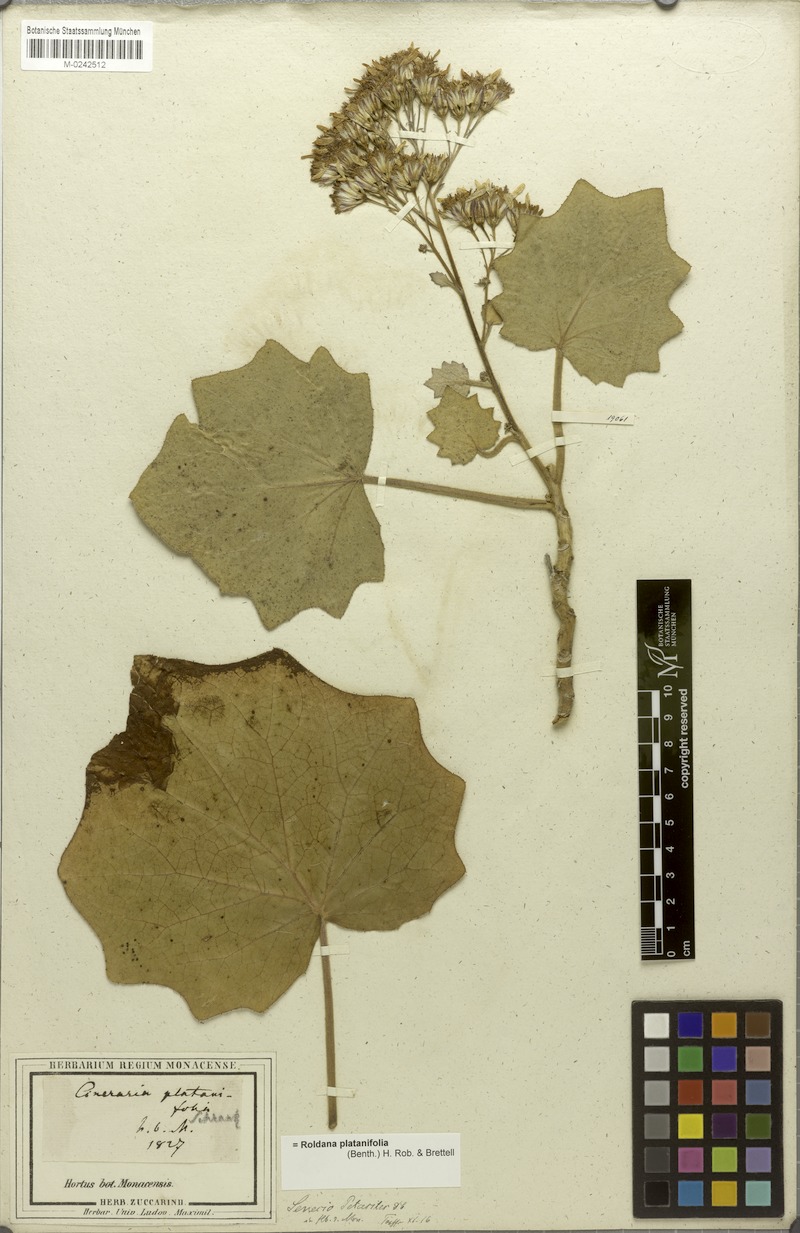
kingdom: Plantae
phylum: Tracheophyta
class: Magnoliopsida
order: Asterales
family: Asteraceae
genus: Roldana
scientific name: Roldana petasitis
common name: California-geranium
